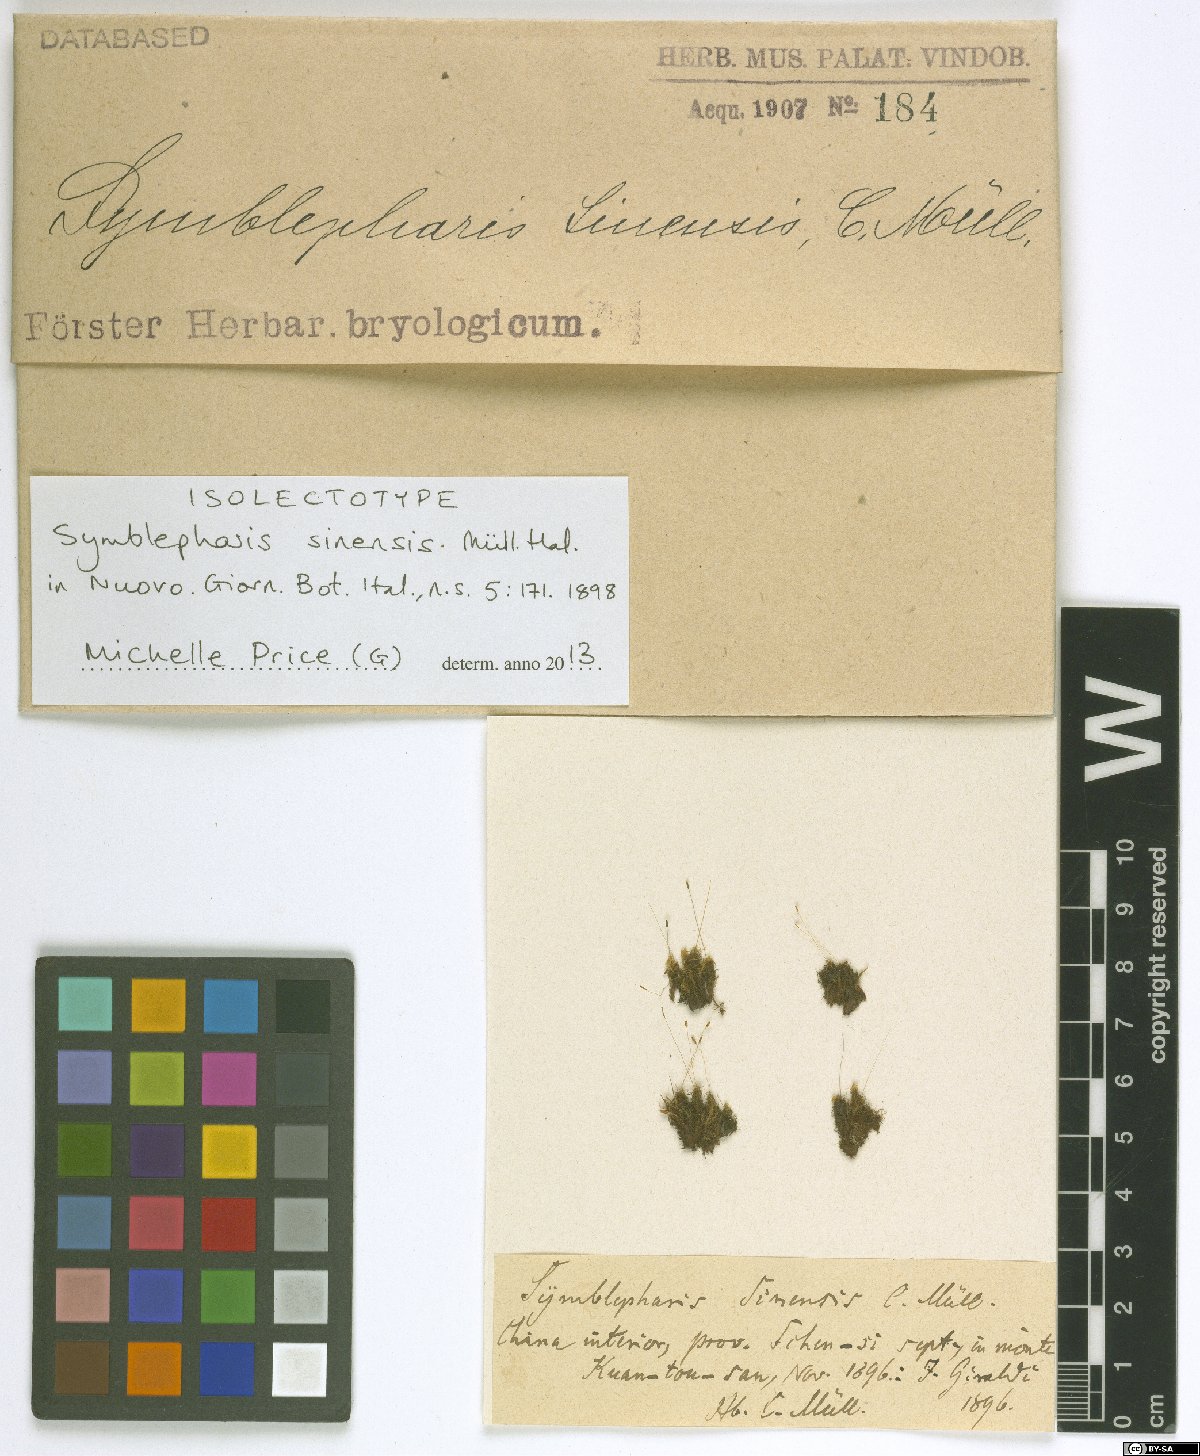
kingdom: Plantae
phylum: Bryophyta
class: Bryopsida
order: Dicranales
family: Rhabdoweisiaceae
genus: Symblepharis
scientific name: Symblepharis sinensis
